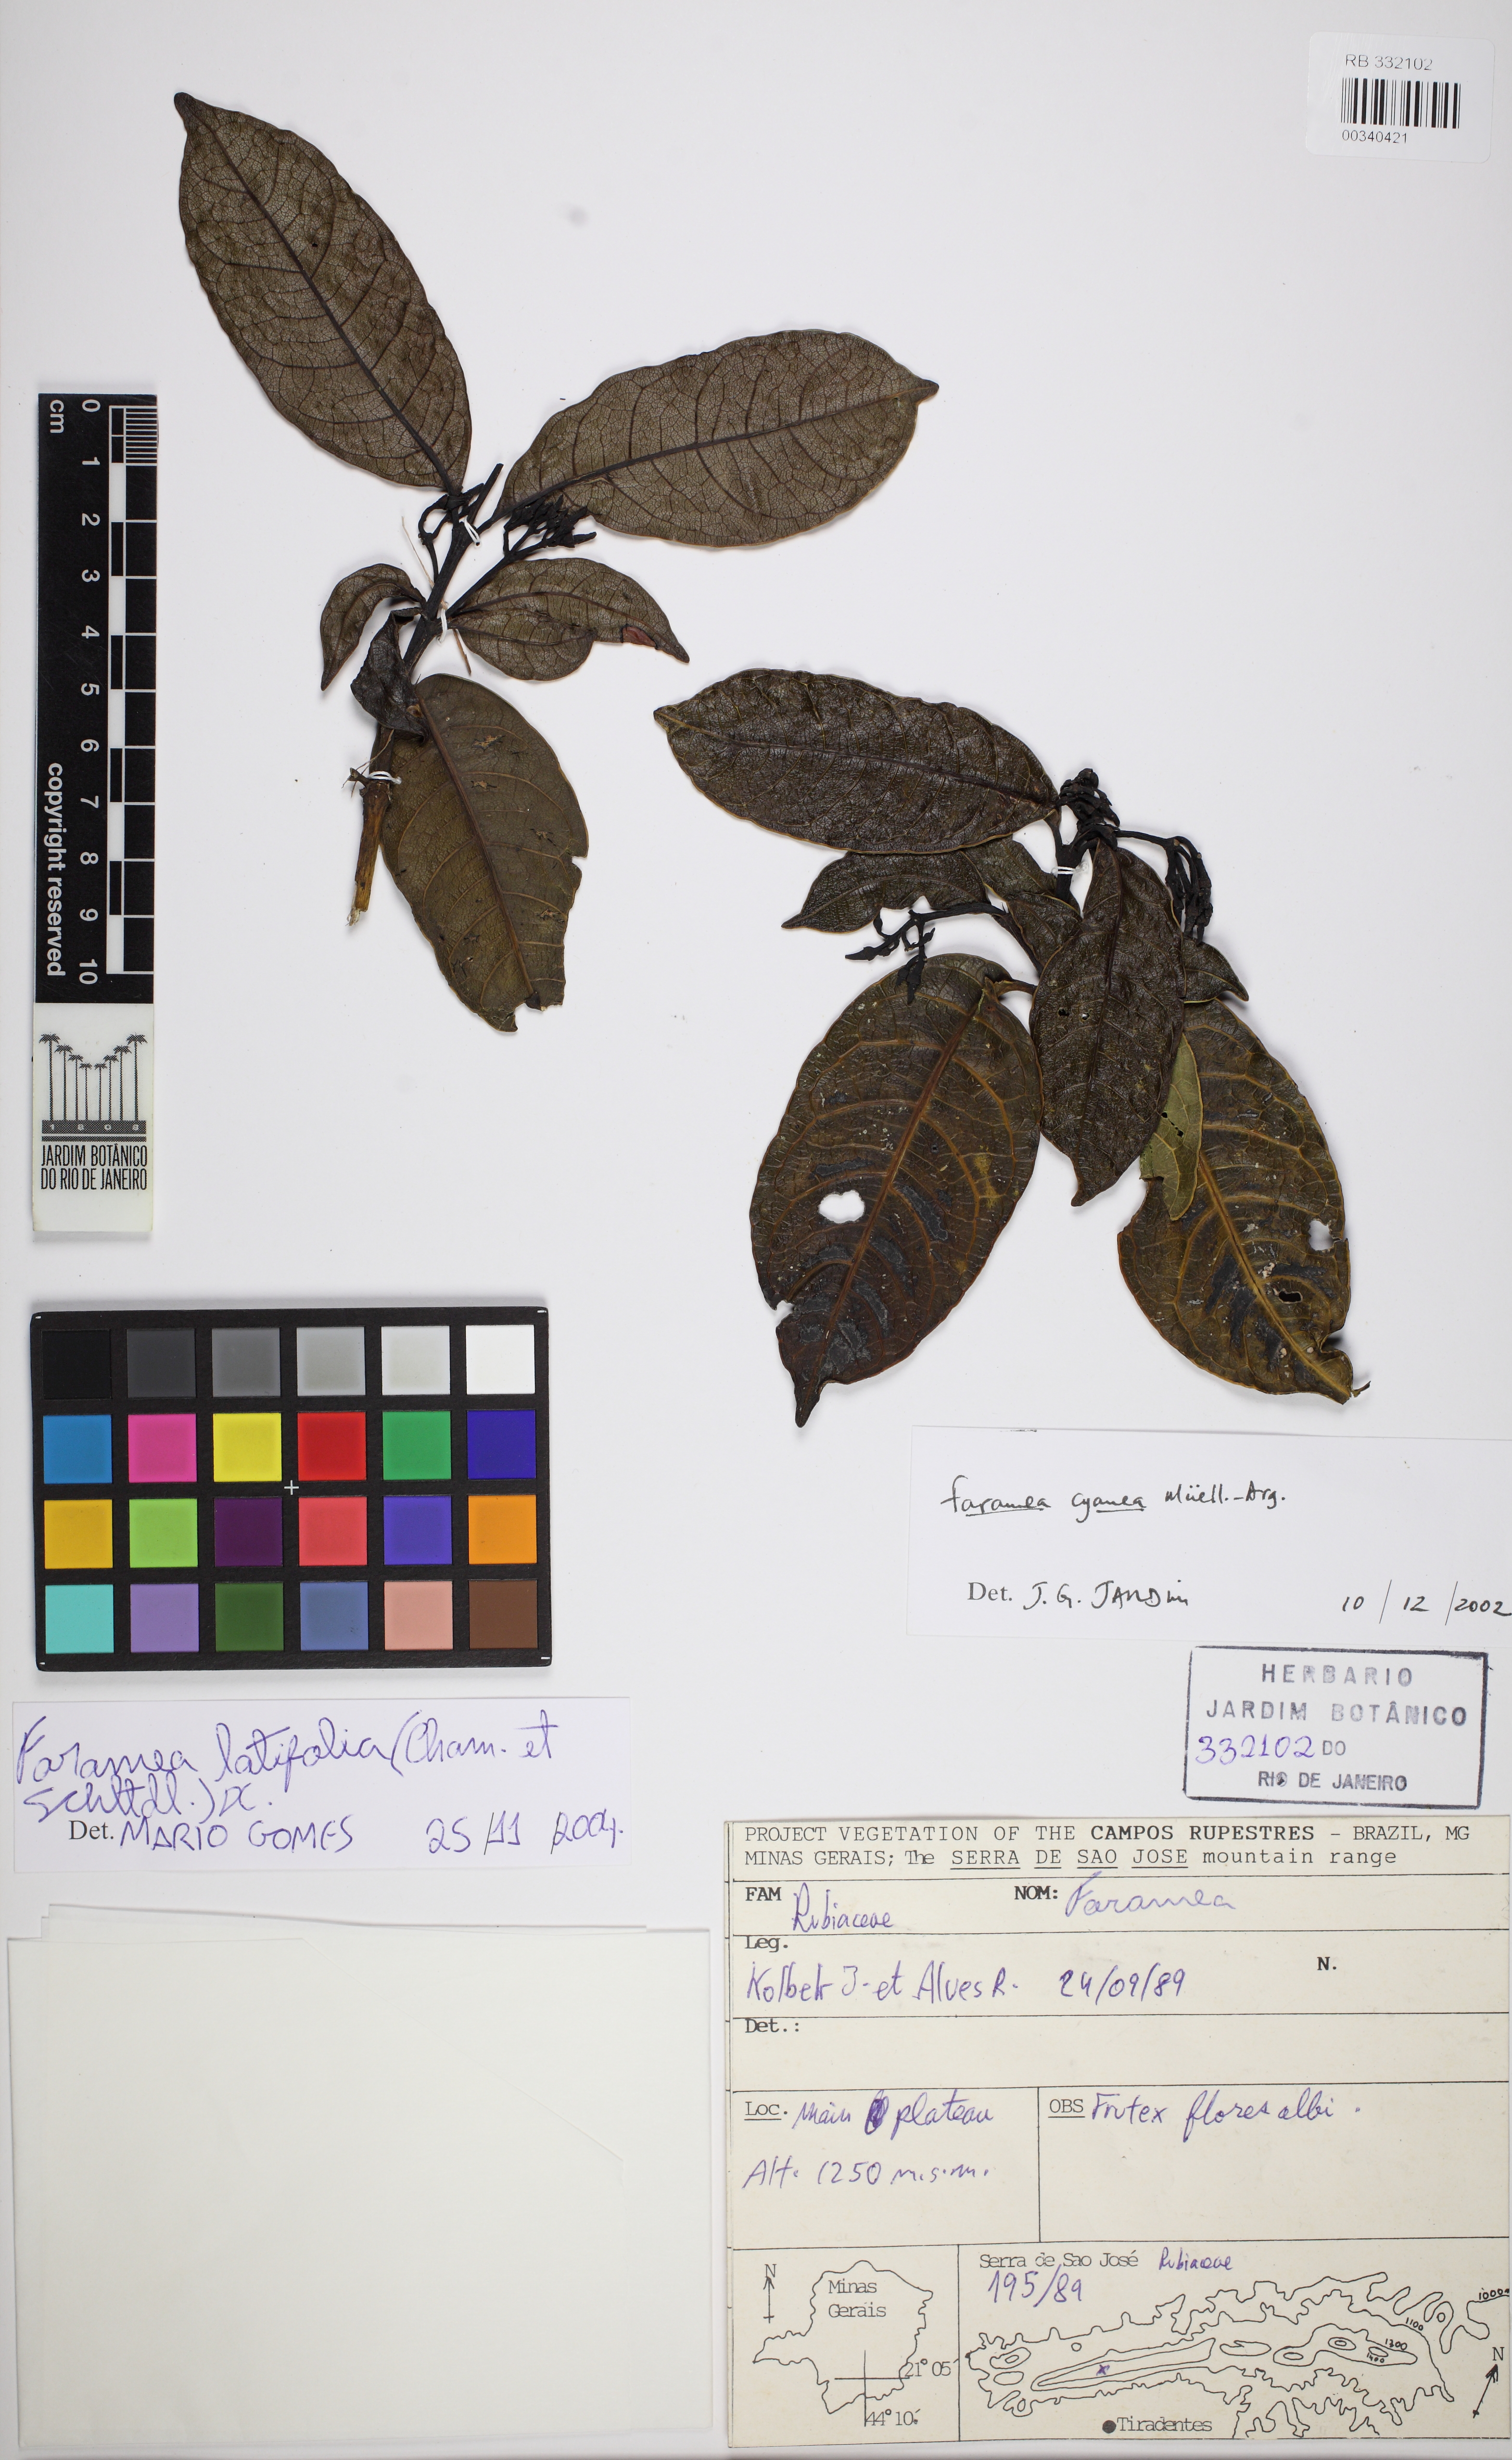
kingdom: Plantae
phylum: Tracheophyta
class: Magnoliopsida
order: Gentianales
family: Rubiaceae
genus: Faramea
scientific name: Faramea latifolia
